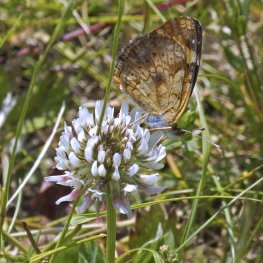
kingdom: Animalia
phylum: Arthropoda
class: Insecta
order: Lepidoptera
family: Nymphalidae
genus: Phyciodes
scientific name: Phyciodes tharos
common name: Northern Crescent
